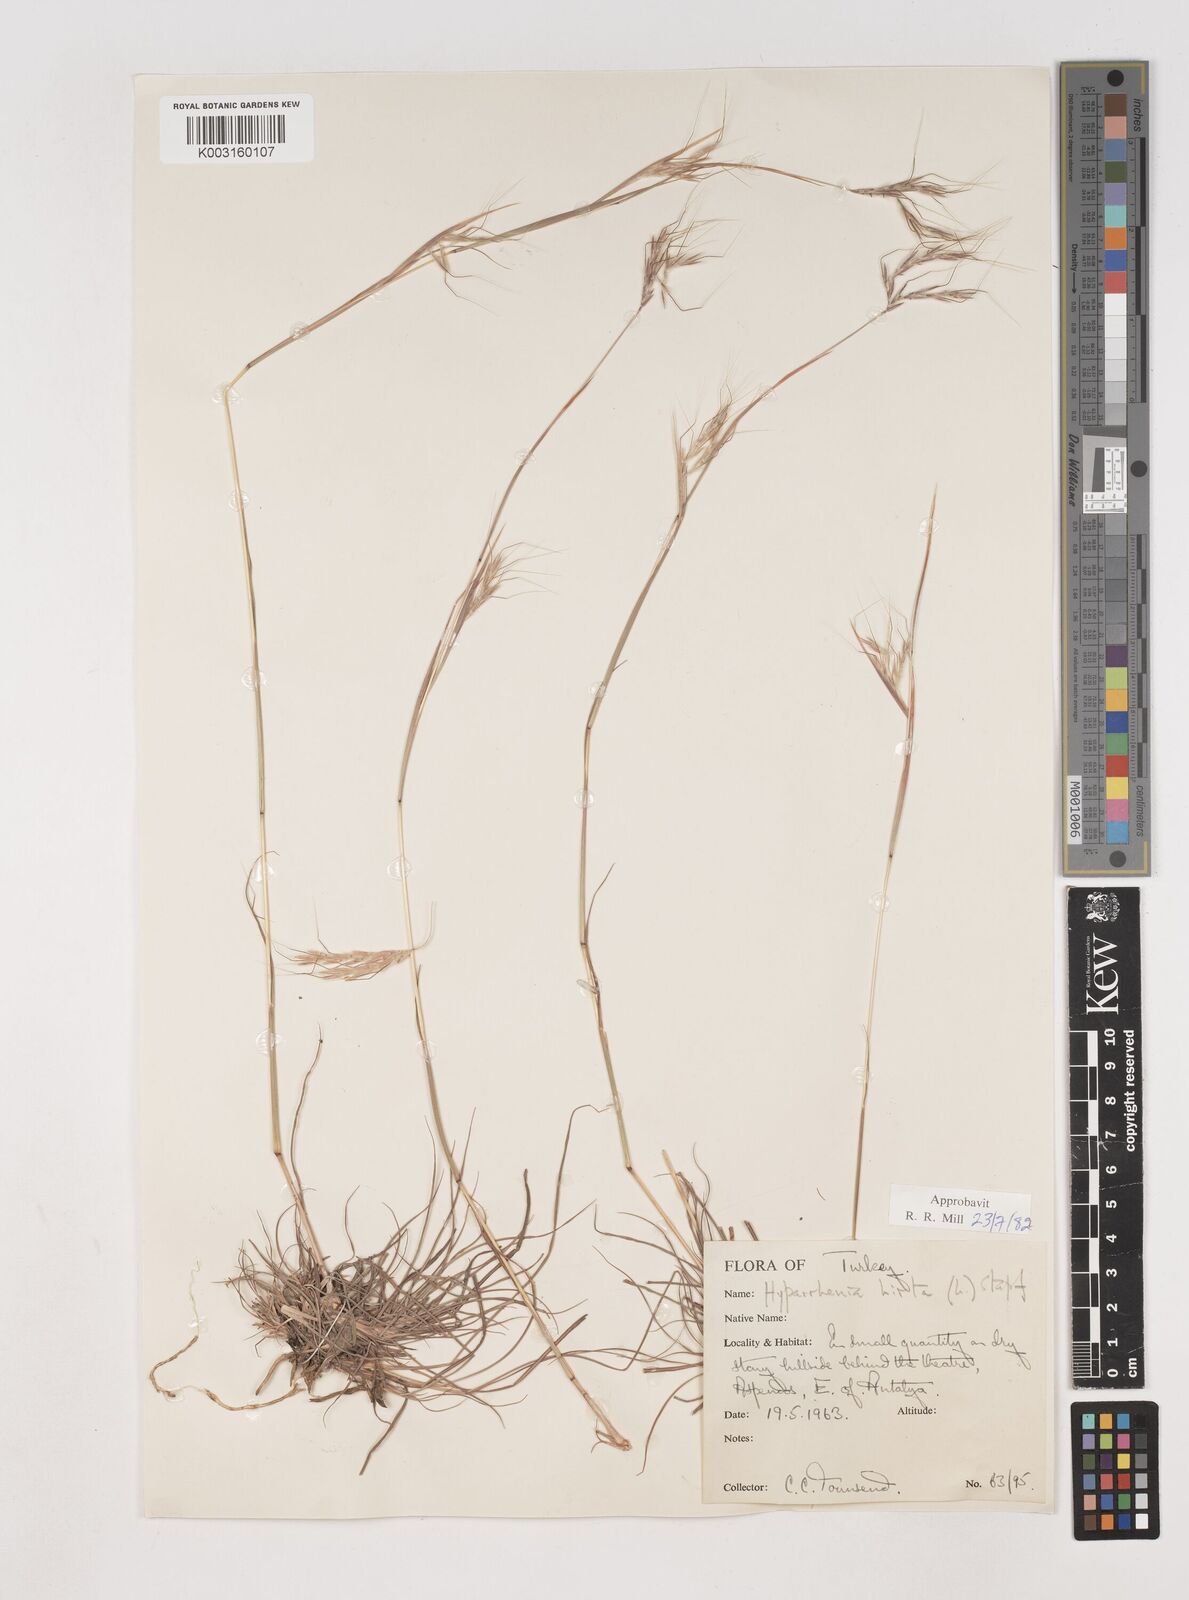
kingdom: Plantae
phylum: Tracheophyta
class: Liliopsida
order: Poales
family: Poaceae
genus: Hyparrhenia
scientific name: Hyparrhenia hirta
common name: Thatching grass
